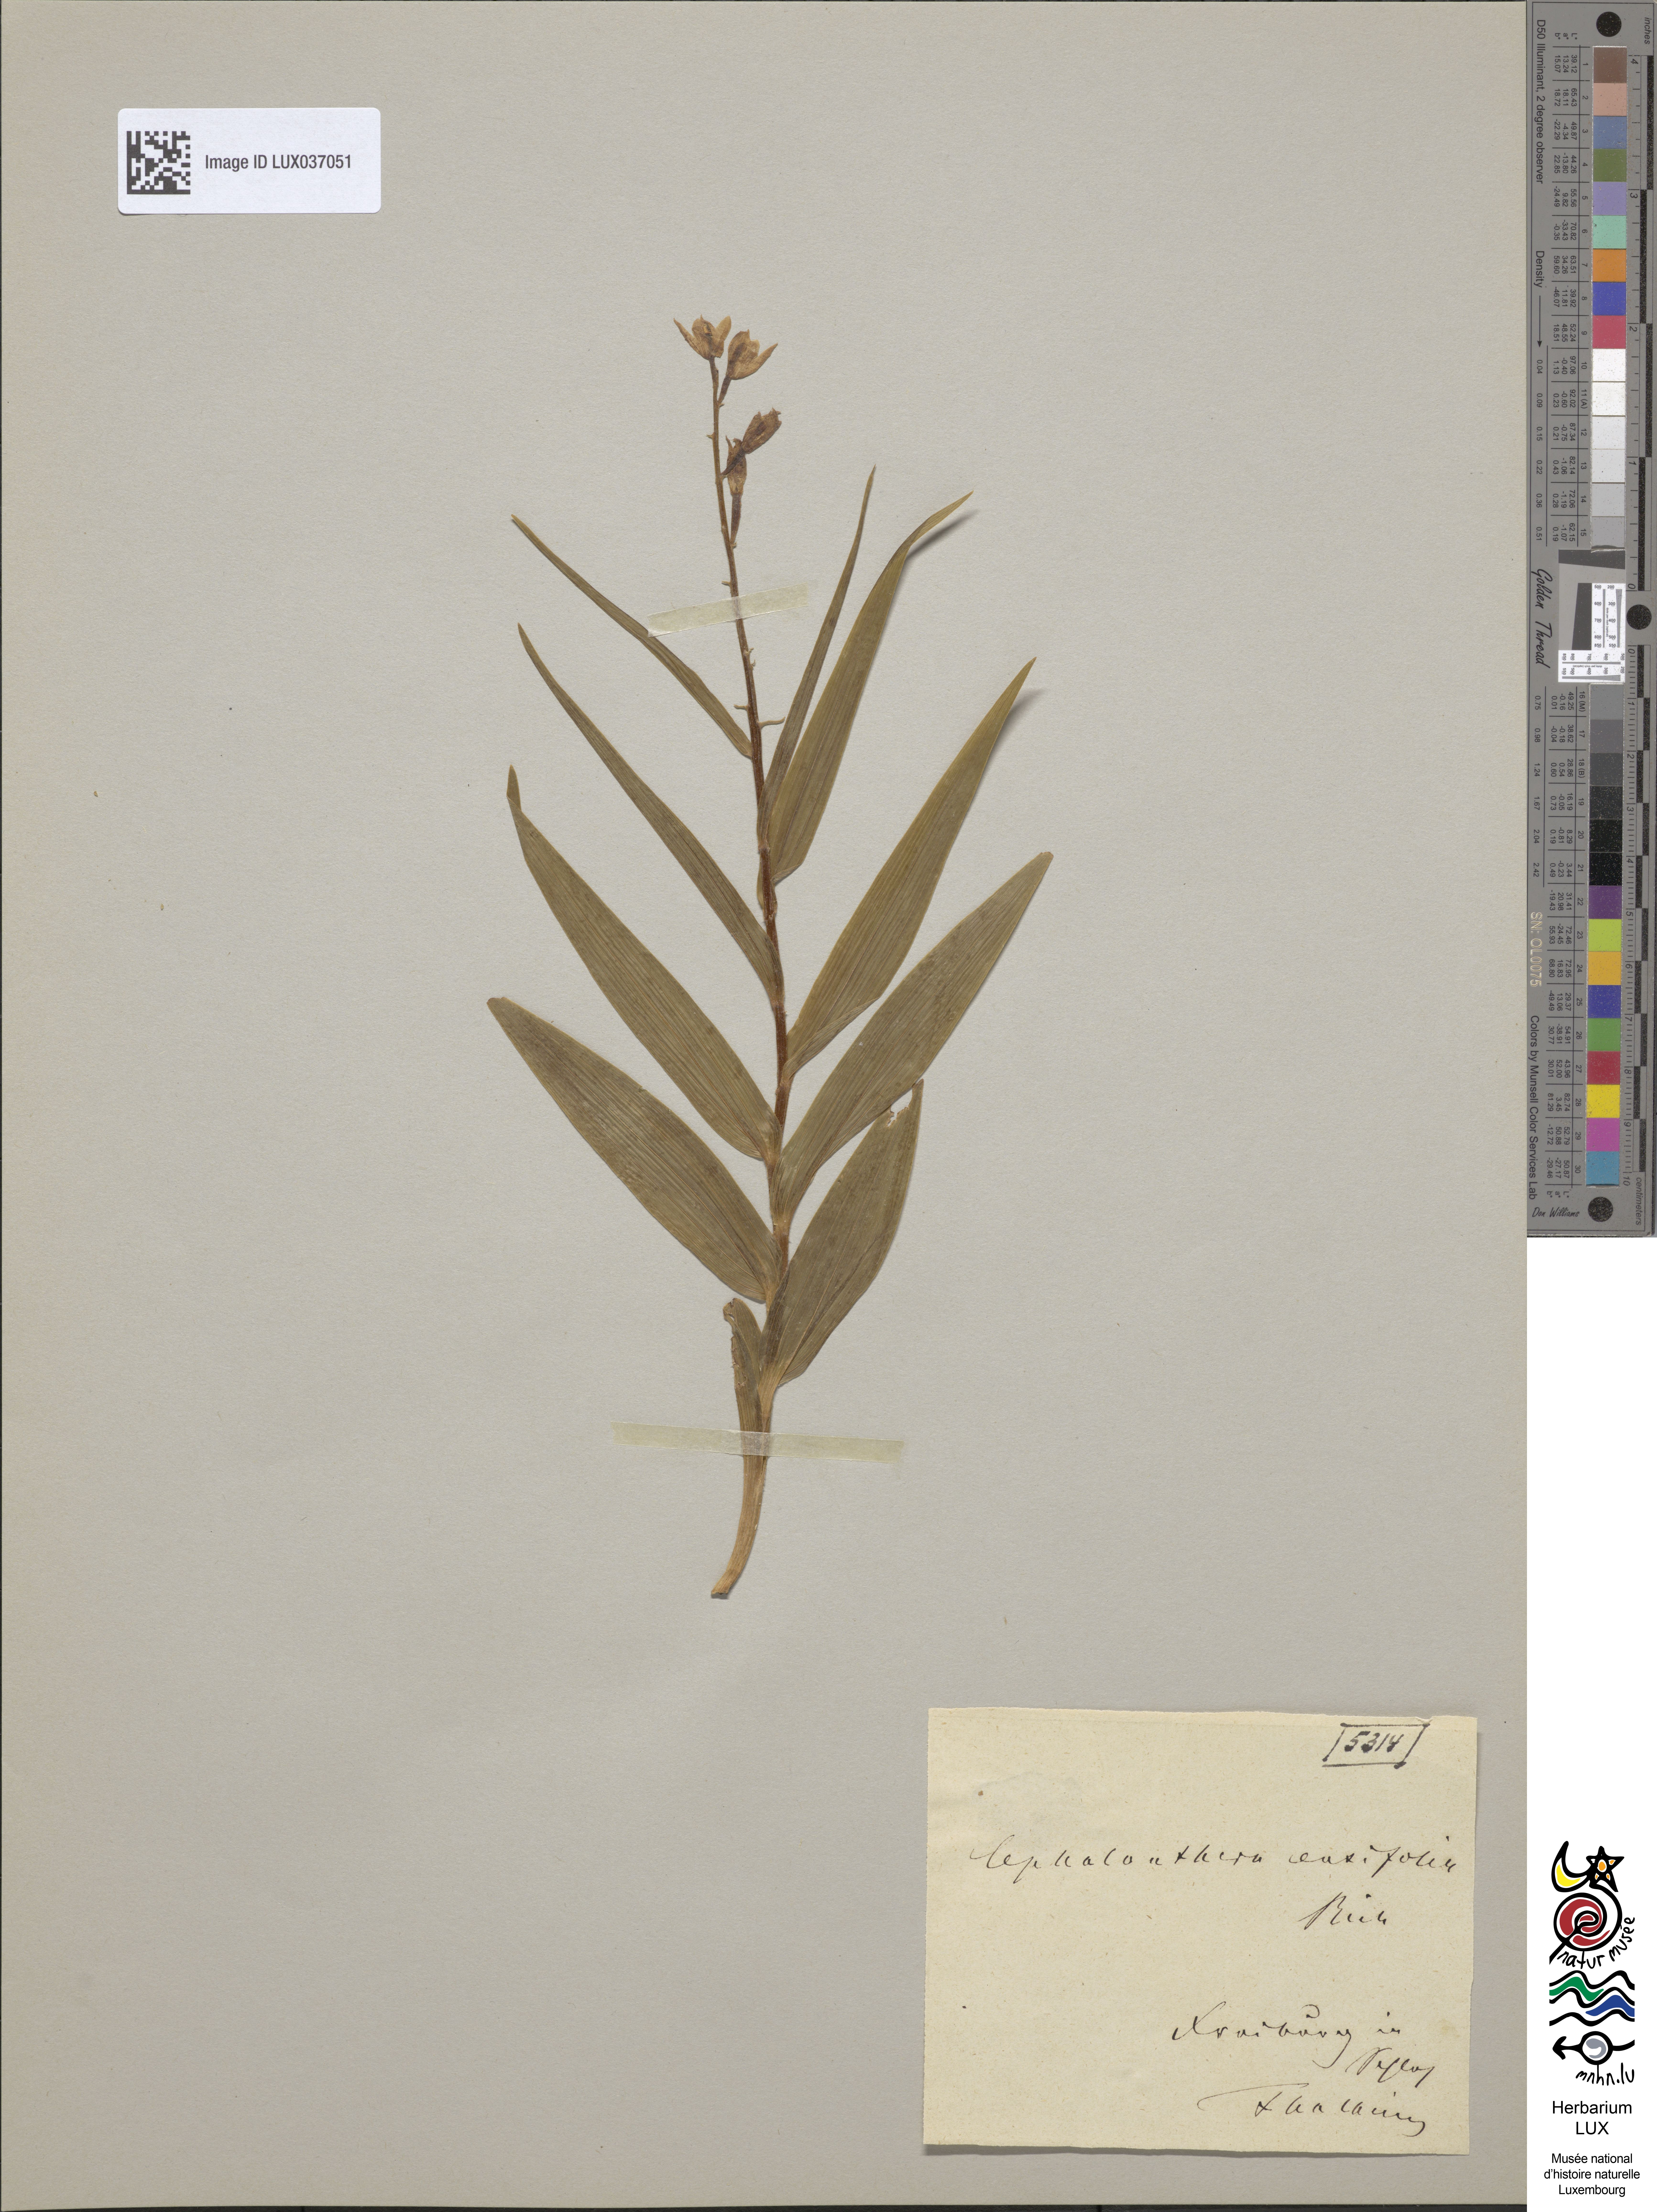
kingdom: Plantae
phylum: Tracheophyta
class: Liliopsida
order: Asparagales
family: Orchidaceae
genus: Cephalanthera
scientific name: Cephalanthera longifolia
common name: Narrow-leaved helleborine
